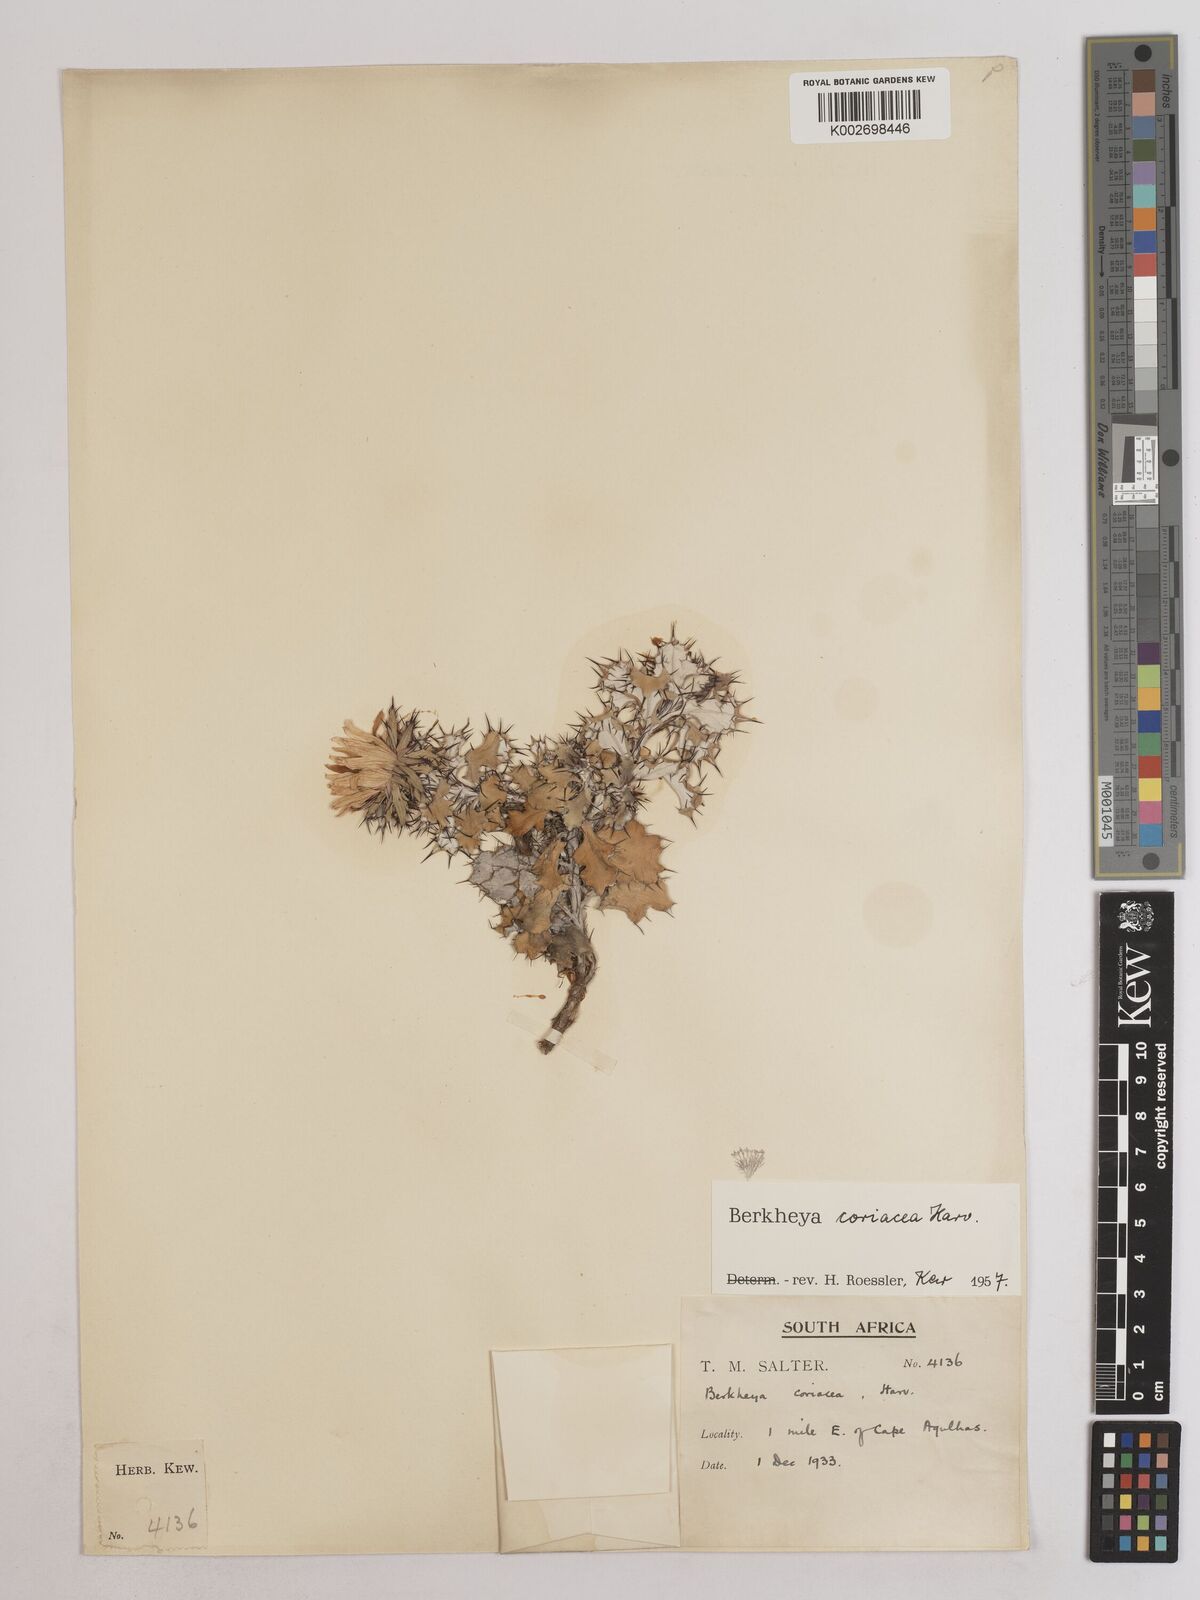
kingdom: Plantae
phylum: Tracheophyta
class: Magnoliopsida
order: Asterales
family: Asteraceae
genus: Berkheya
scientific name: Berkheya coriacea
